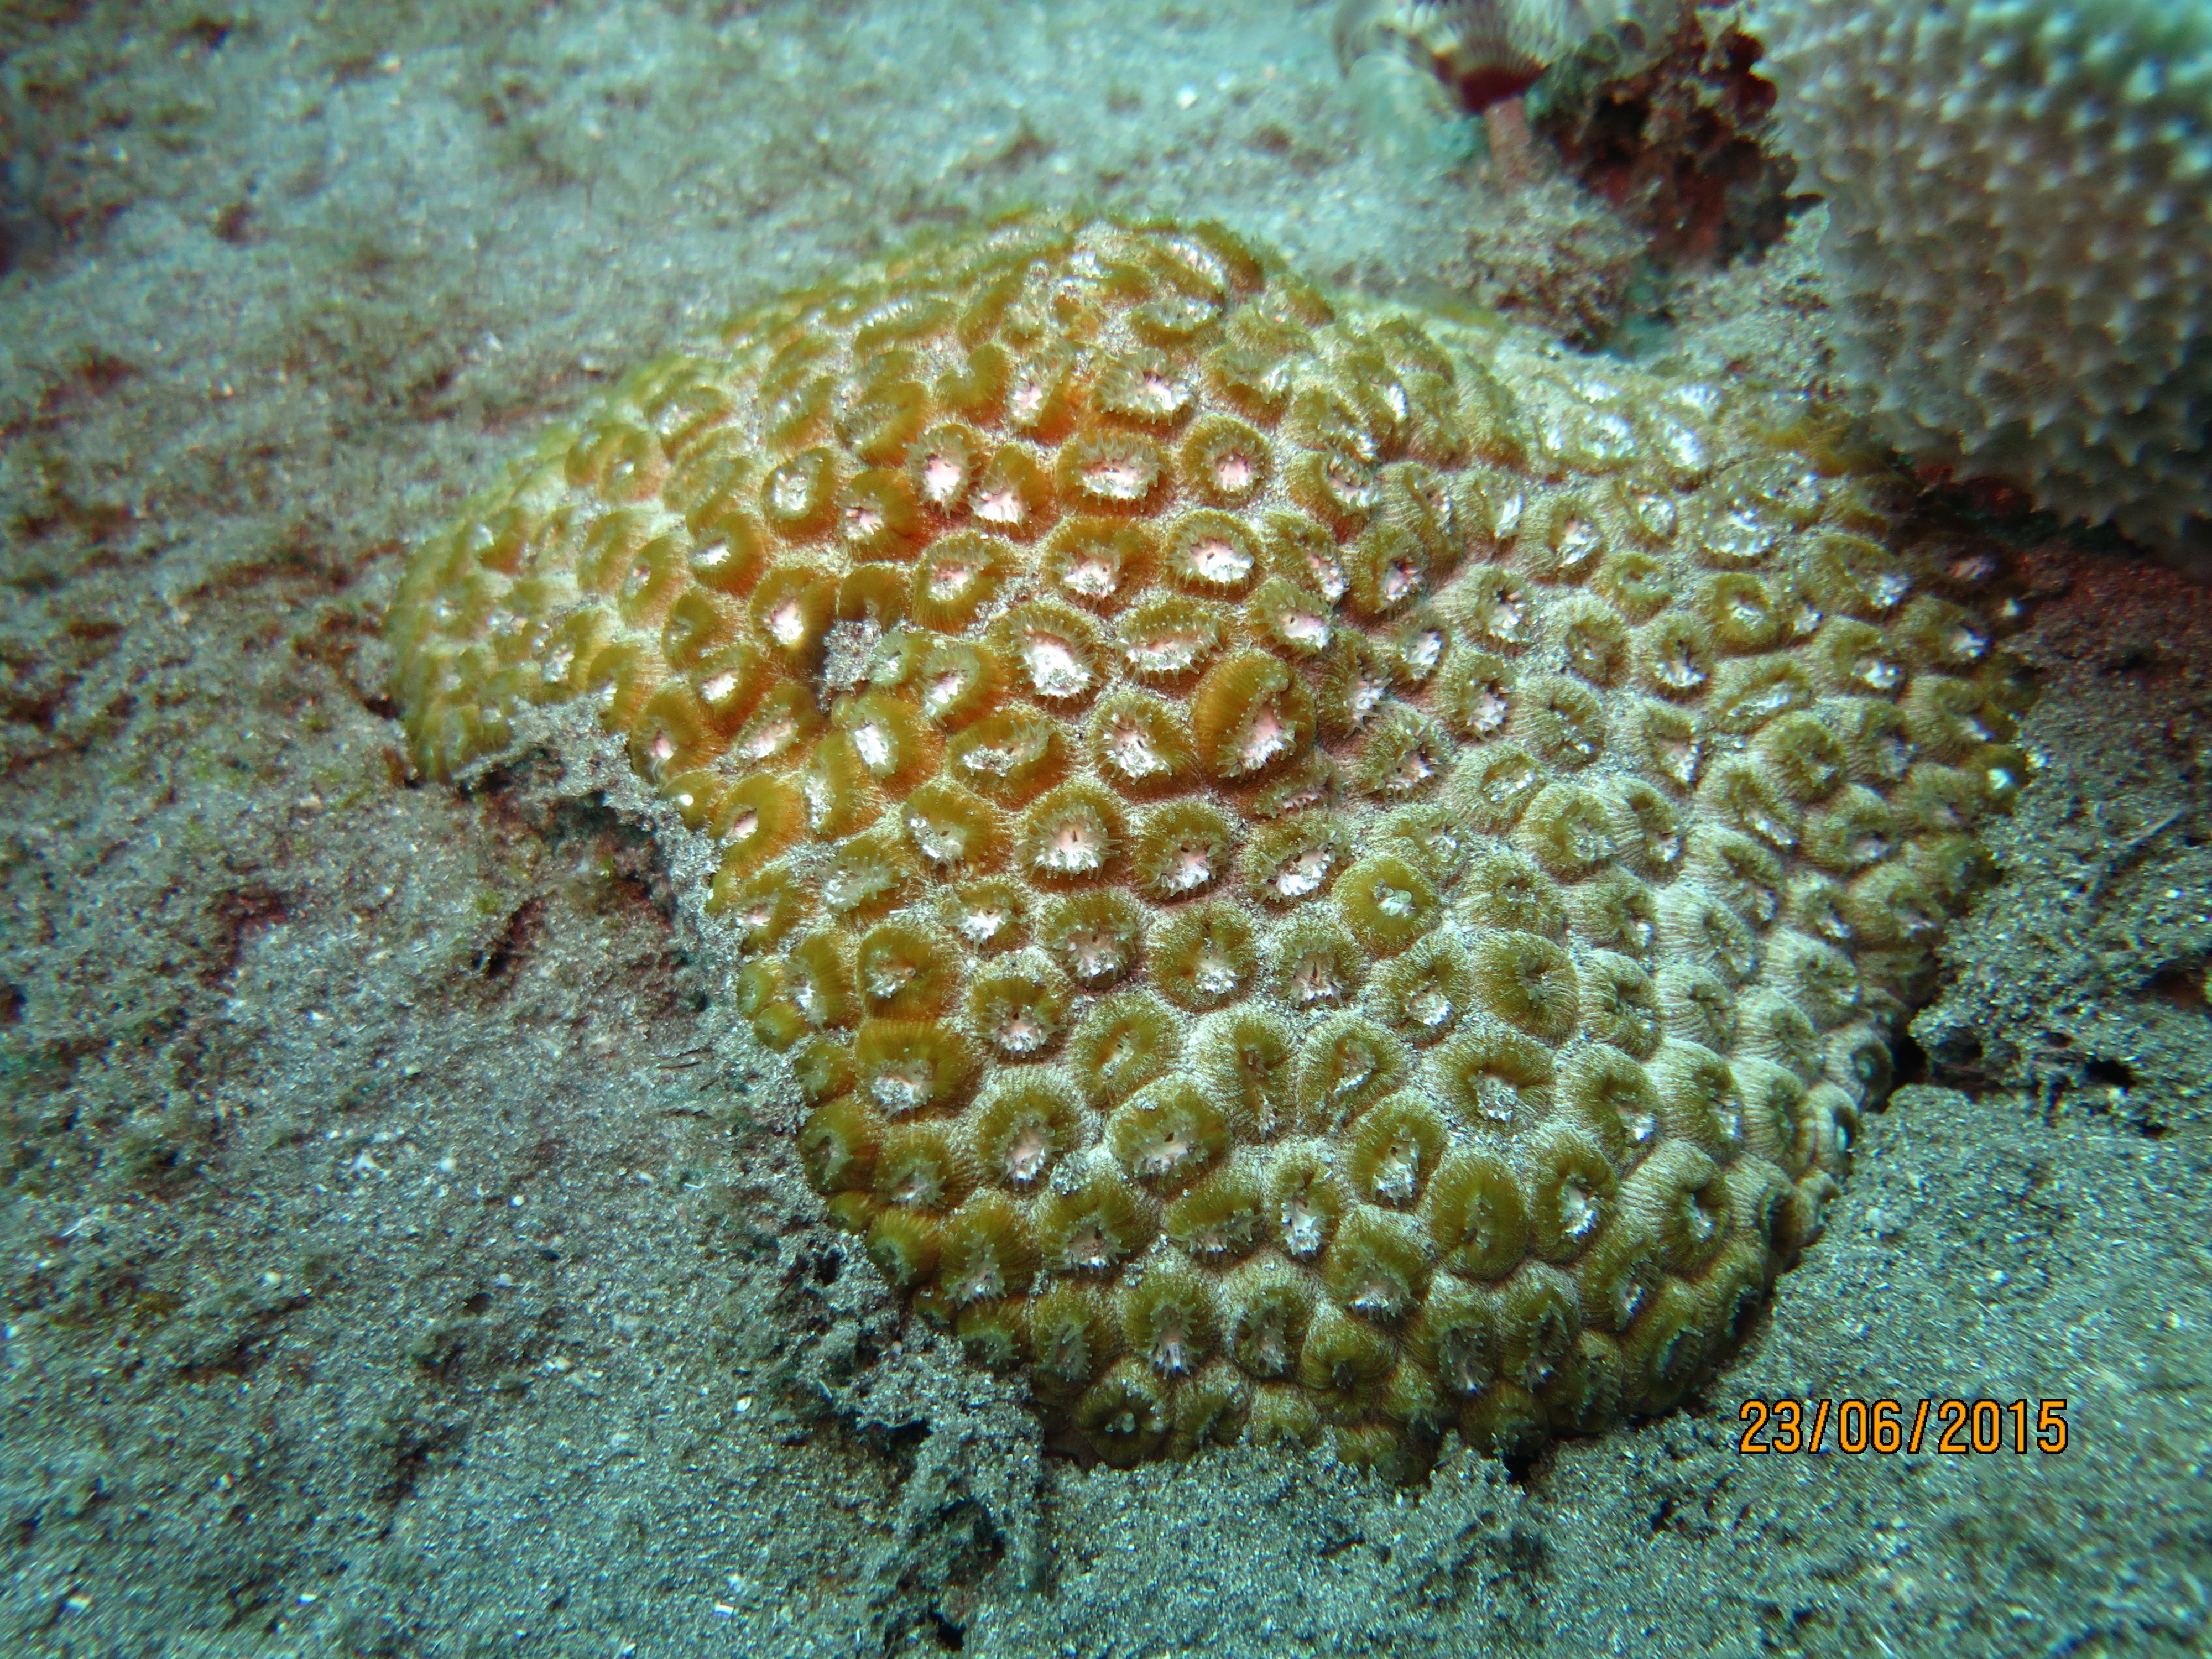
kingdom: Animalia
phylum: Cnidaria
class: Anthozoa
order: Scleractinia
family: Montastraeidae
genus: Montastraea
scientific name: Montastraea cavernosa
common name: Great star coral
